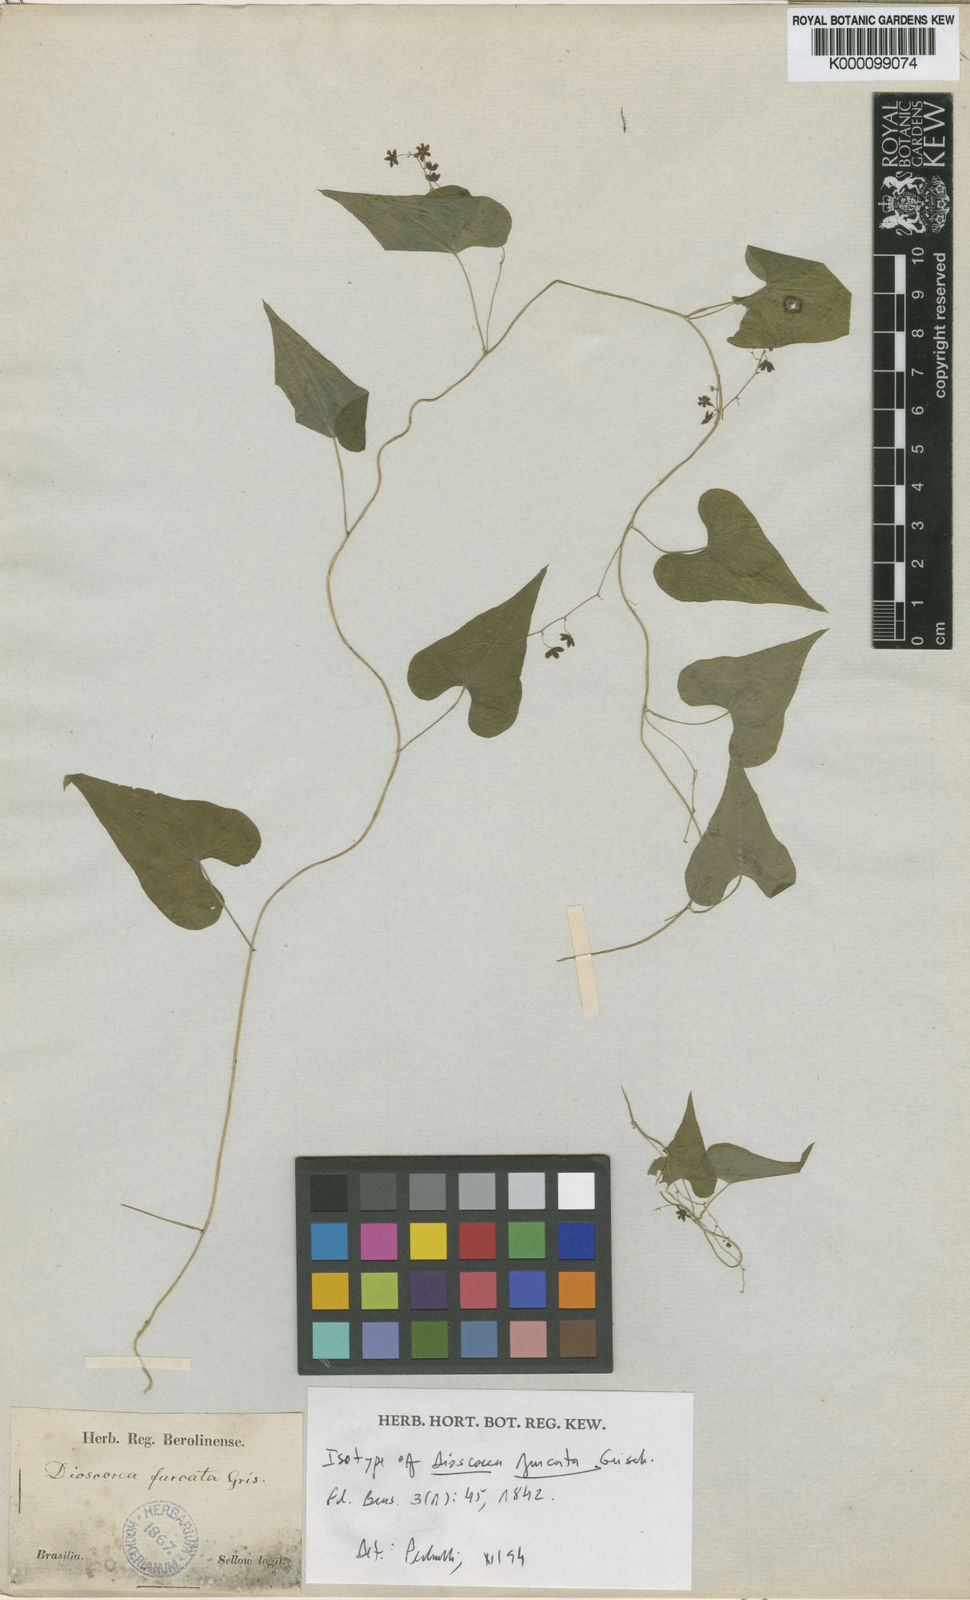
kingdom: Plantae
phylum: Tracheophyta
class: Liliopsida
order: Dioscoreales
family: Dioscoreaceae
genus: Dioscorea
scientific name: Dioscorea furcata
